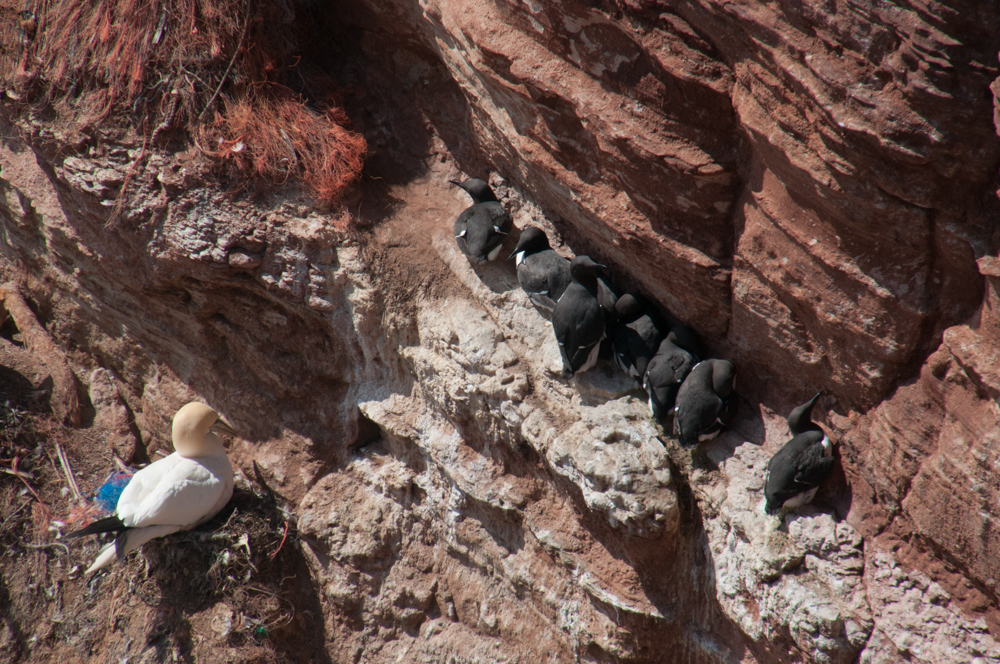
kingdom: Animalia
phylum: Chordata
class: Aves
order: Charadriiformes
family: Alcidae
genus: Uria
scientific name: Uria aalge
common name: Common murre
